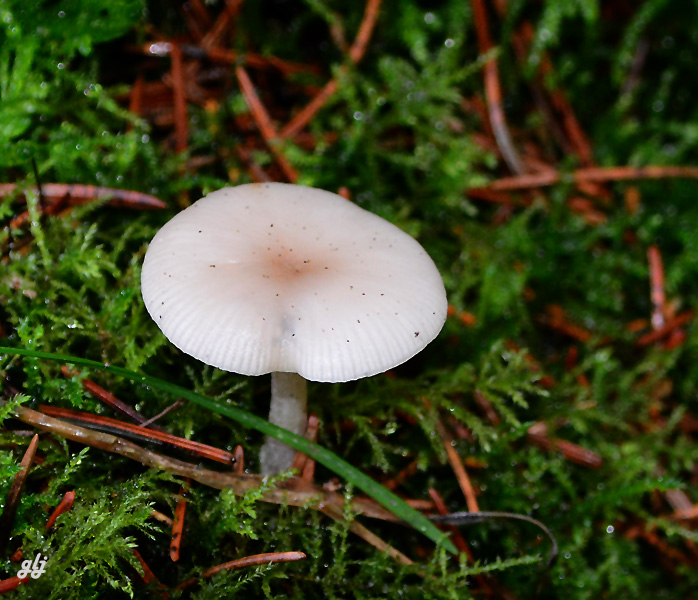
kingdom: Fungi
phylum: Basidiomycota
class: Agaricomycetes
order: Agaricales
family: Tricholomataceae
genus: Clitocybe
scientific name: Clitocybe
